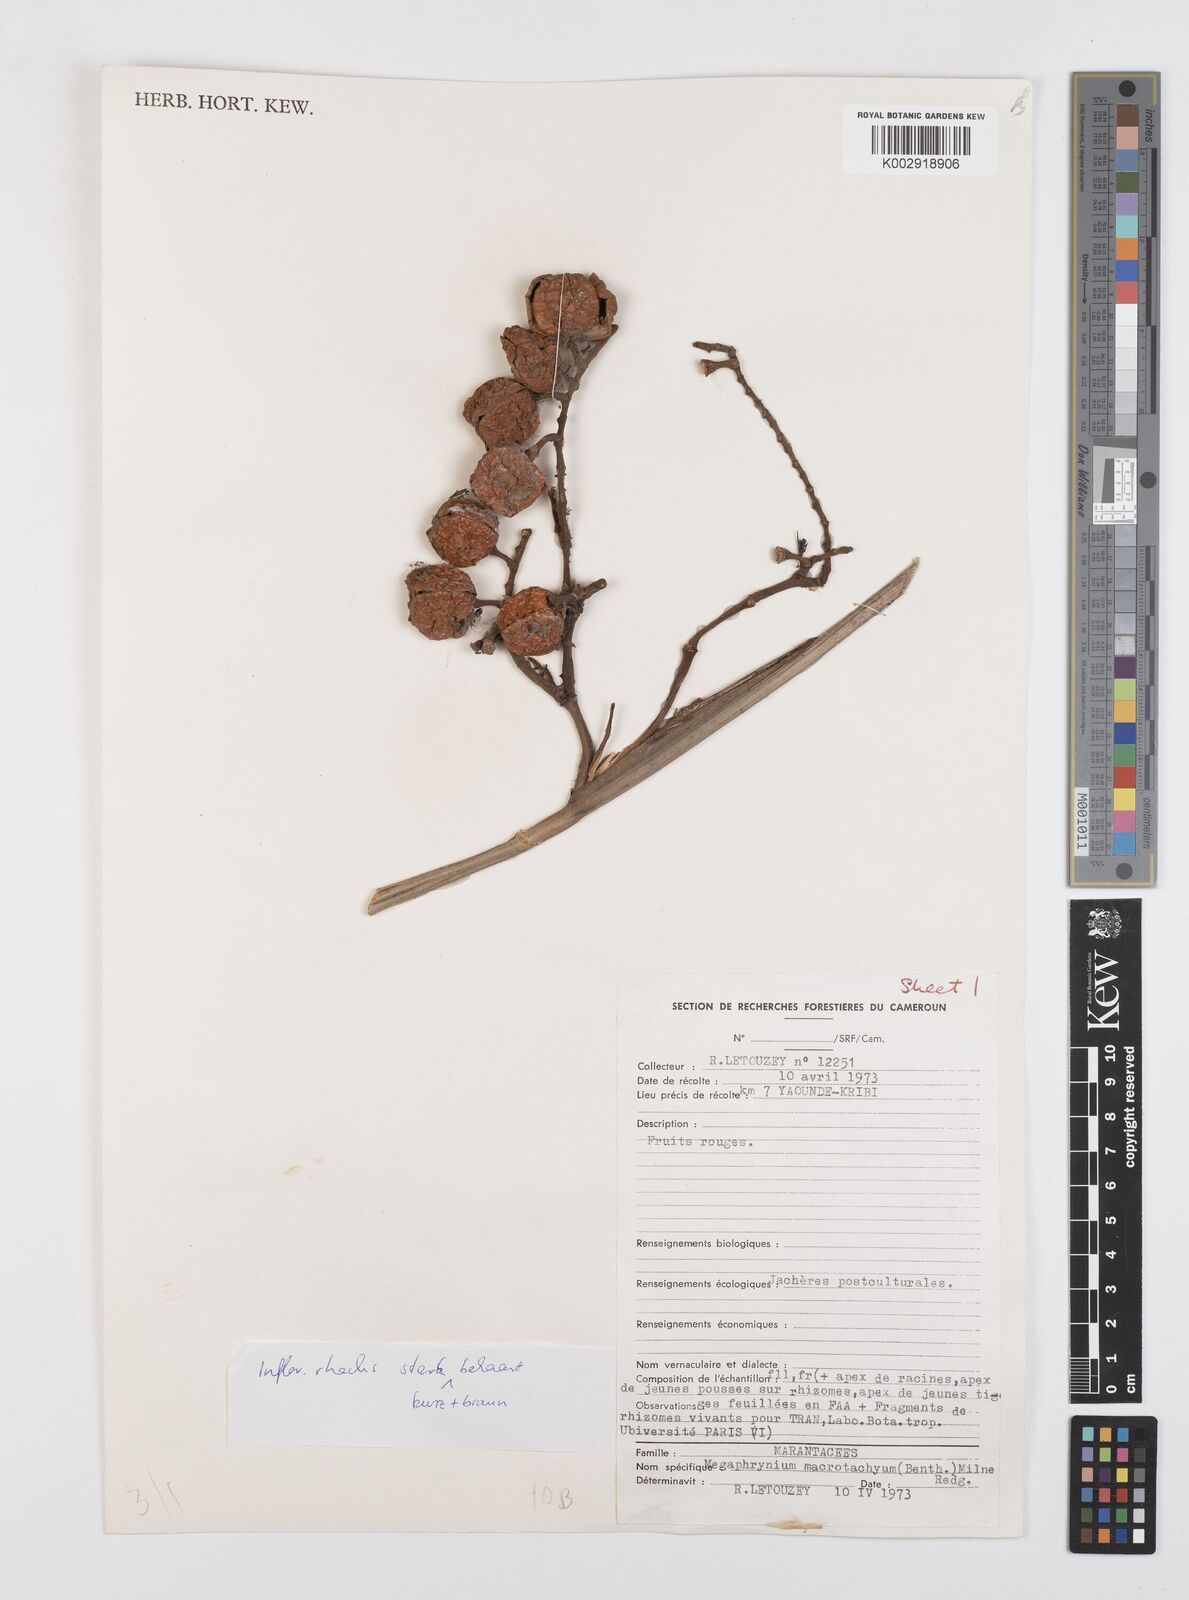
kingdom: Plantae
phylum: Tracheophyta
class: Liliopsida
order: Zingiberales
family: Marantaceae
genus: Megaphrynium
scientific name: Megaphrynium macrostachyum
